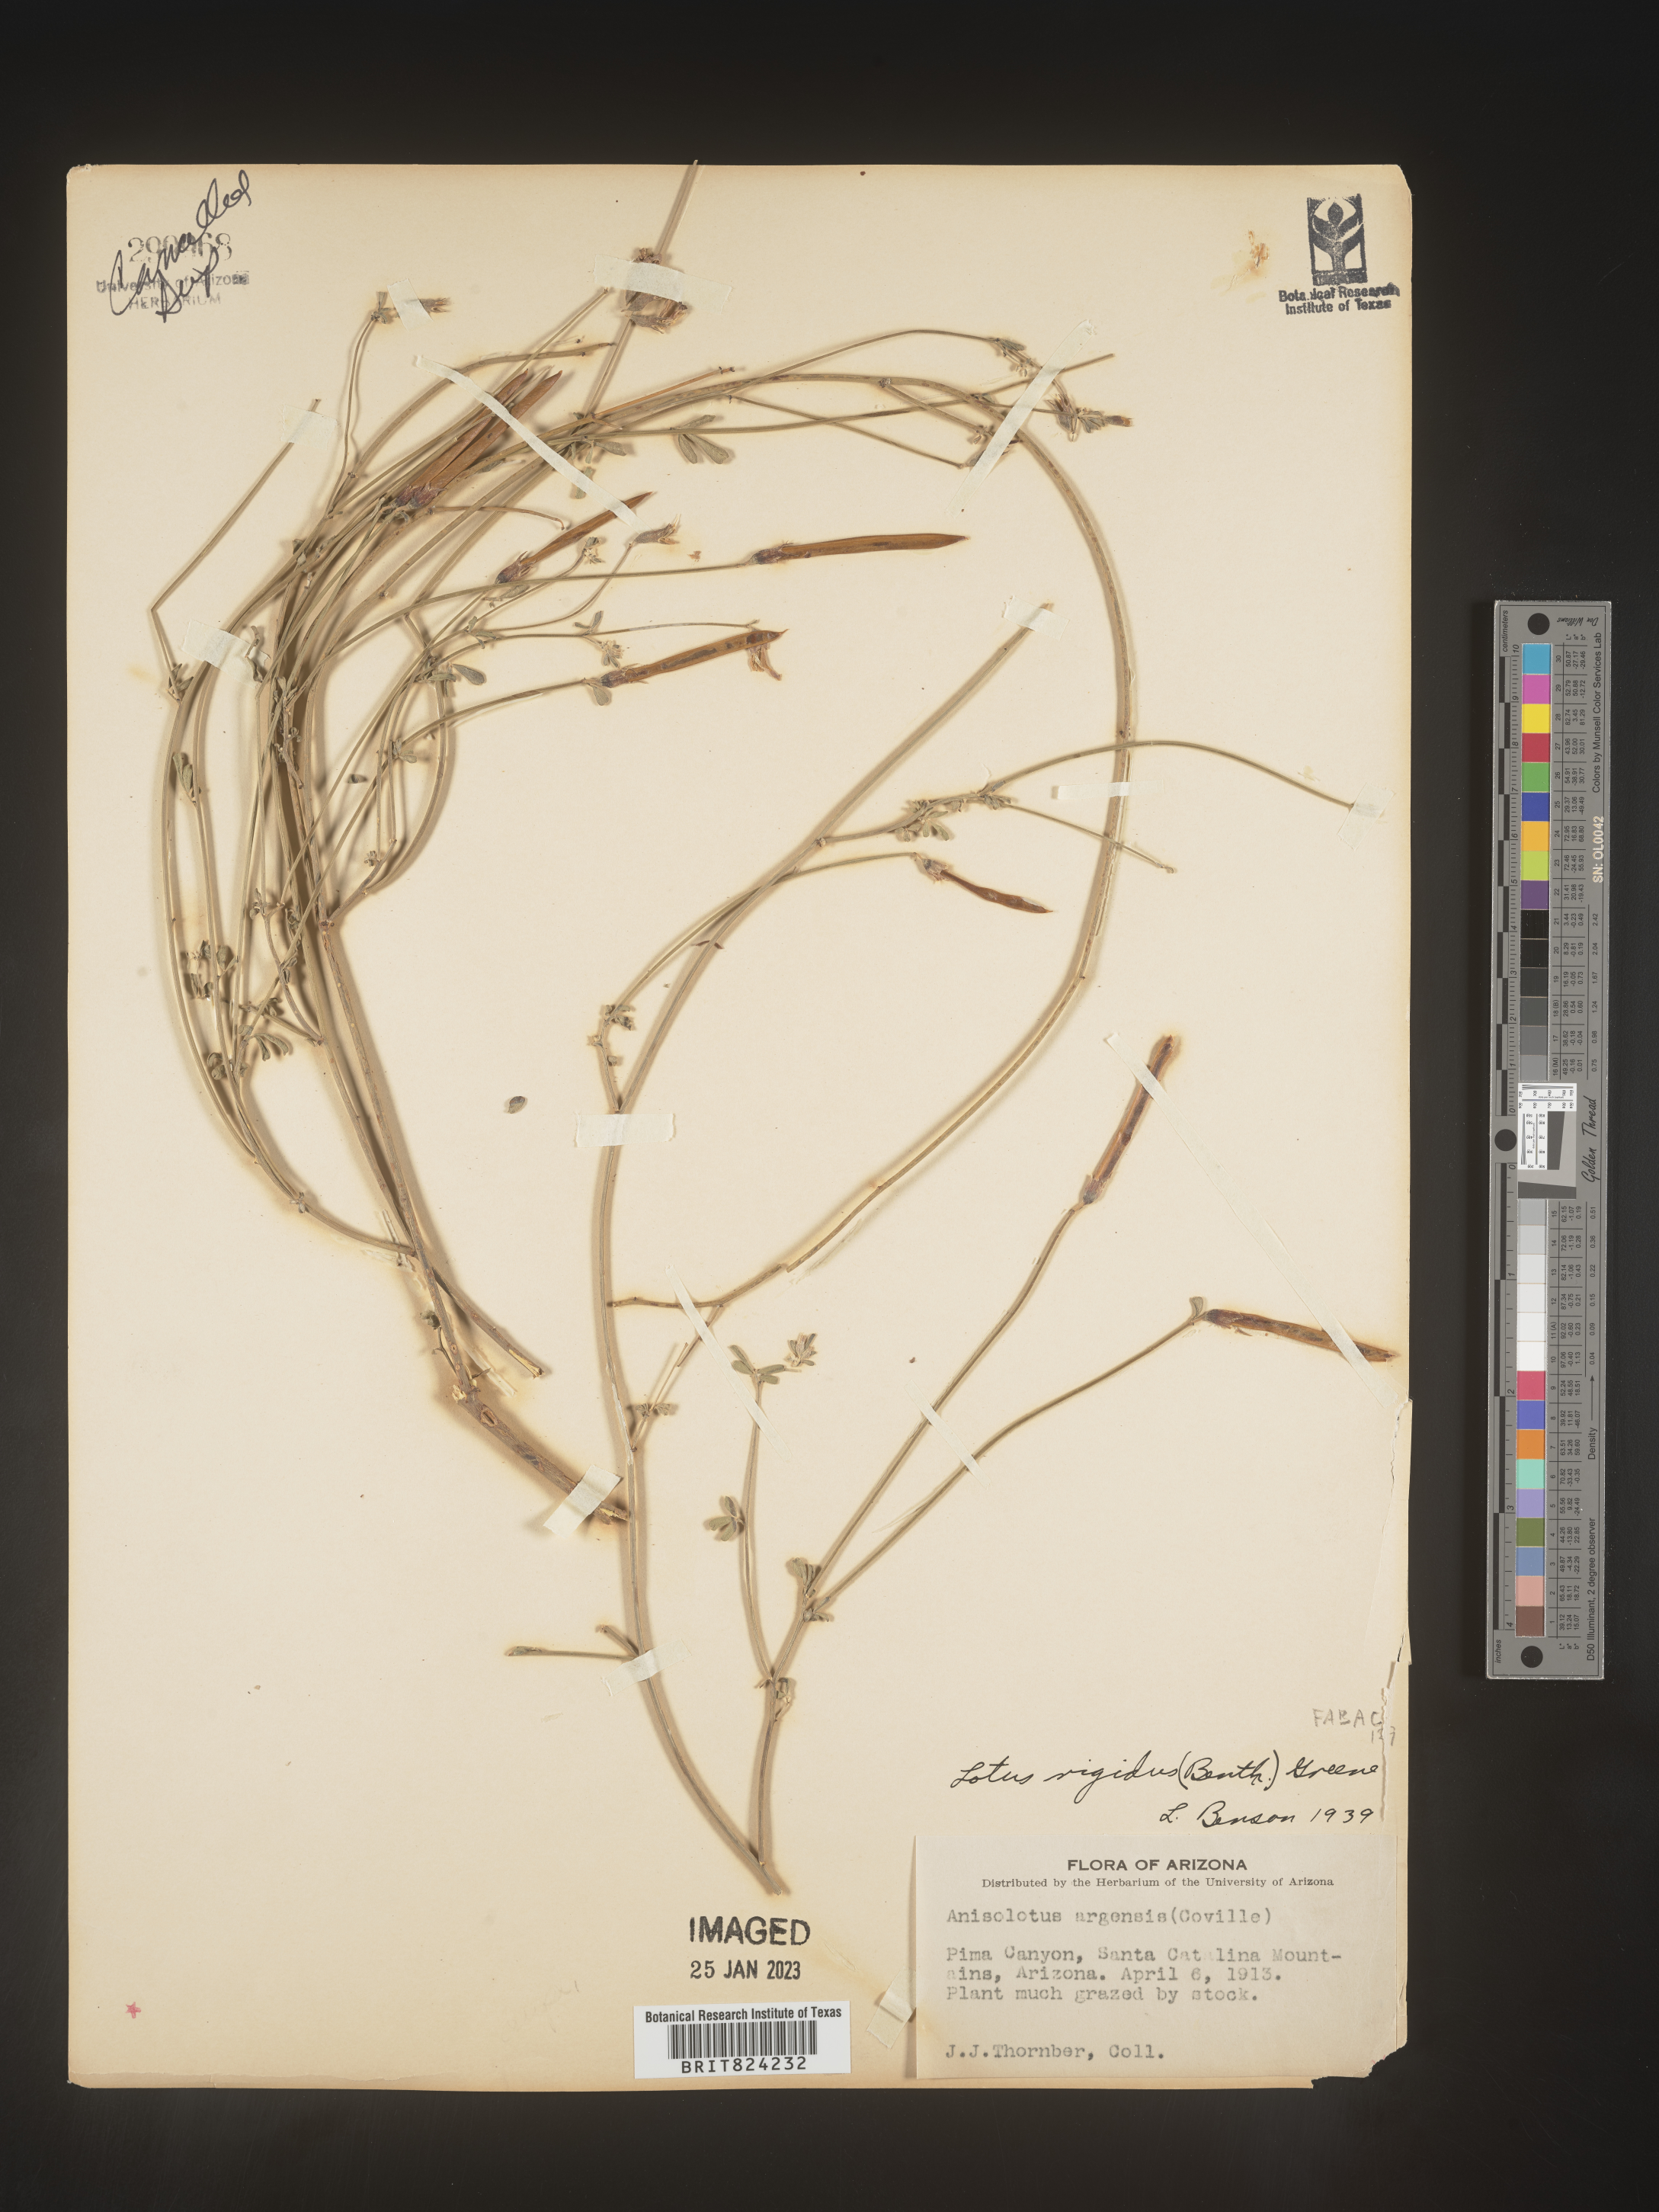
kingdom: Plantae
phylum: Tracheophyta
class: Magnoliopsida
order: Fabales
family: Fabaceae
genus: Lotus
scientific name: Lotus
